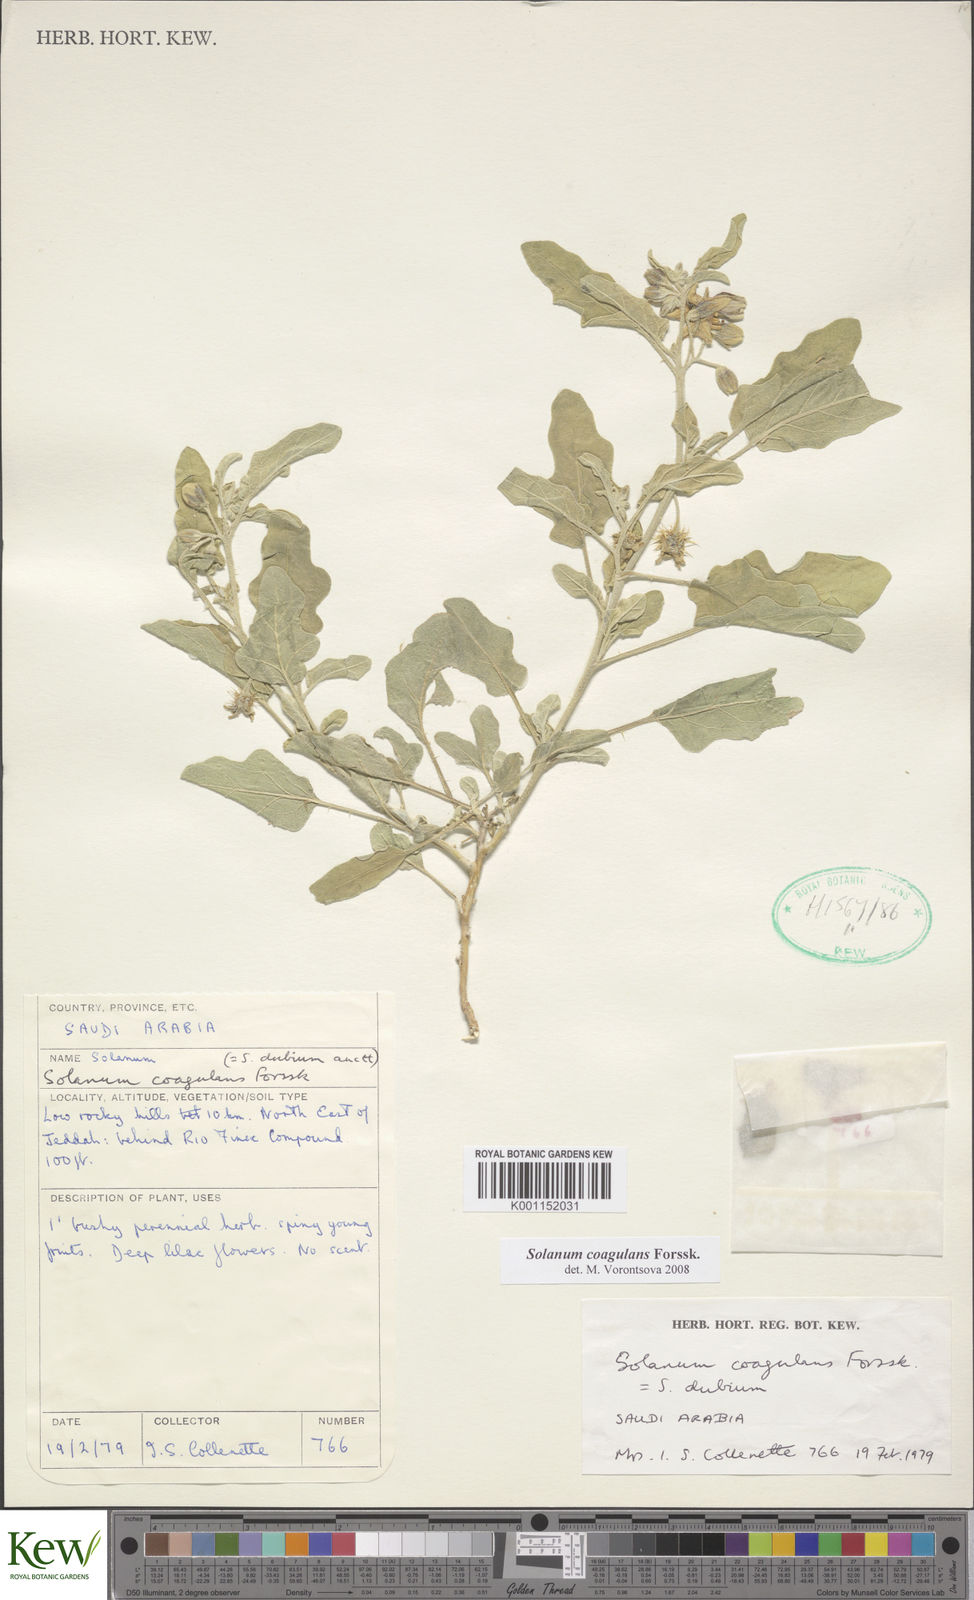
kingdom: Plantae
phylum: Tracheophyta
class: Magnoliopsida
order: Solanales
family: Solanaceae
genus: Solanum
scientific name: Solanum coagulans
